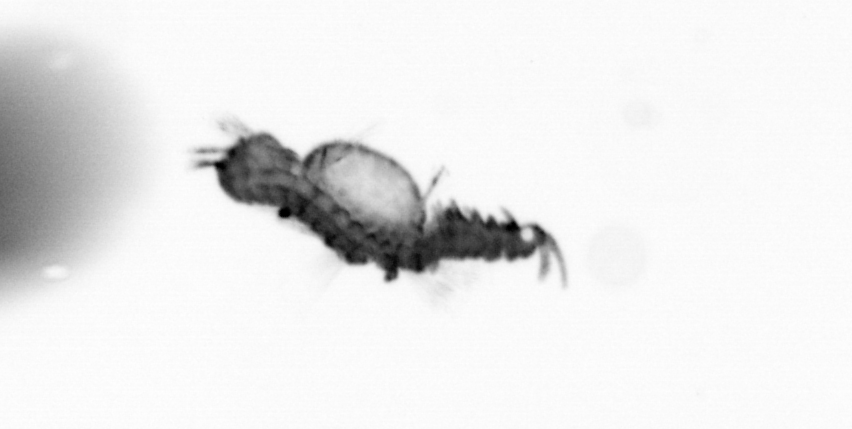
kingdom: Animalia
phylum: Annelida
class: Polychaeta
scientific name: Polychaeta
